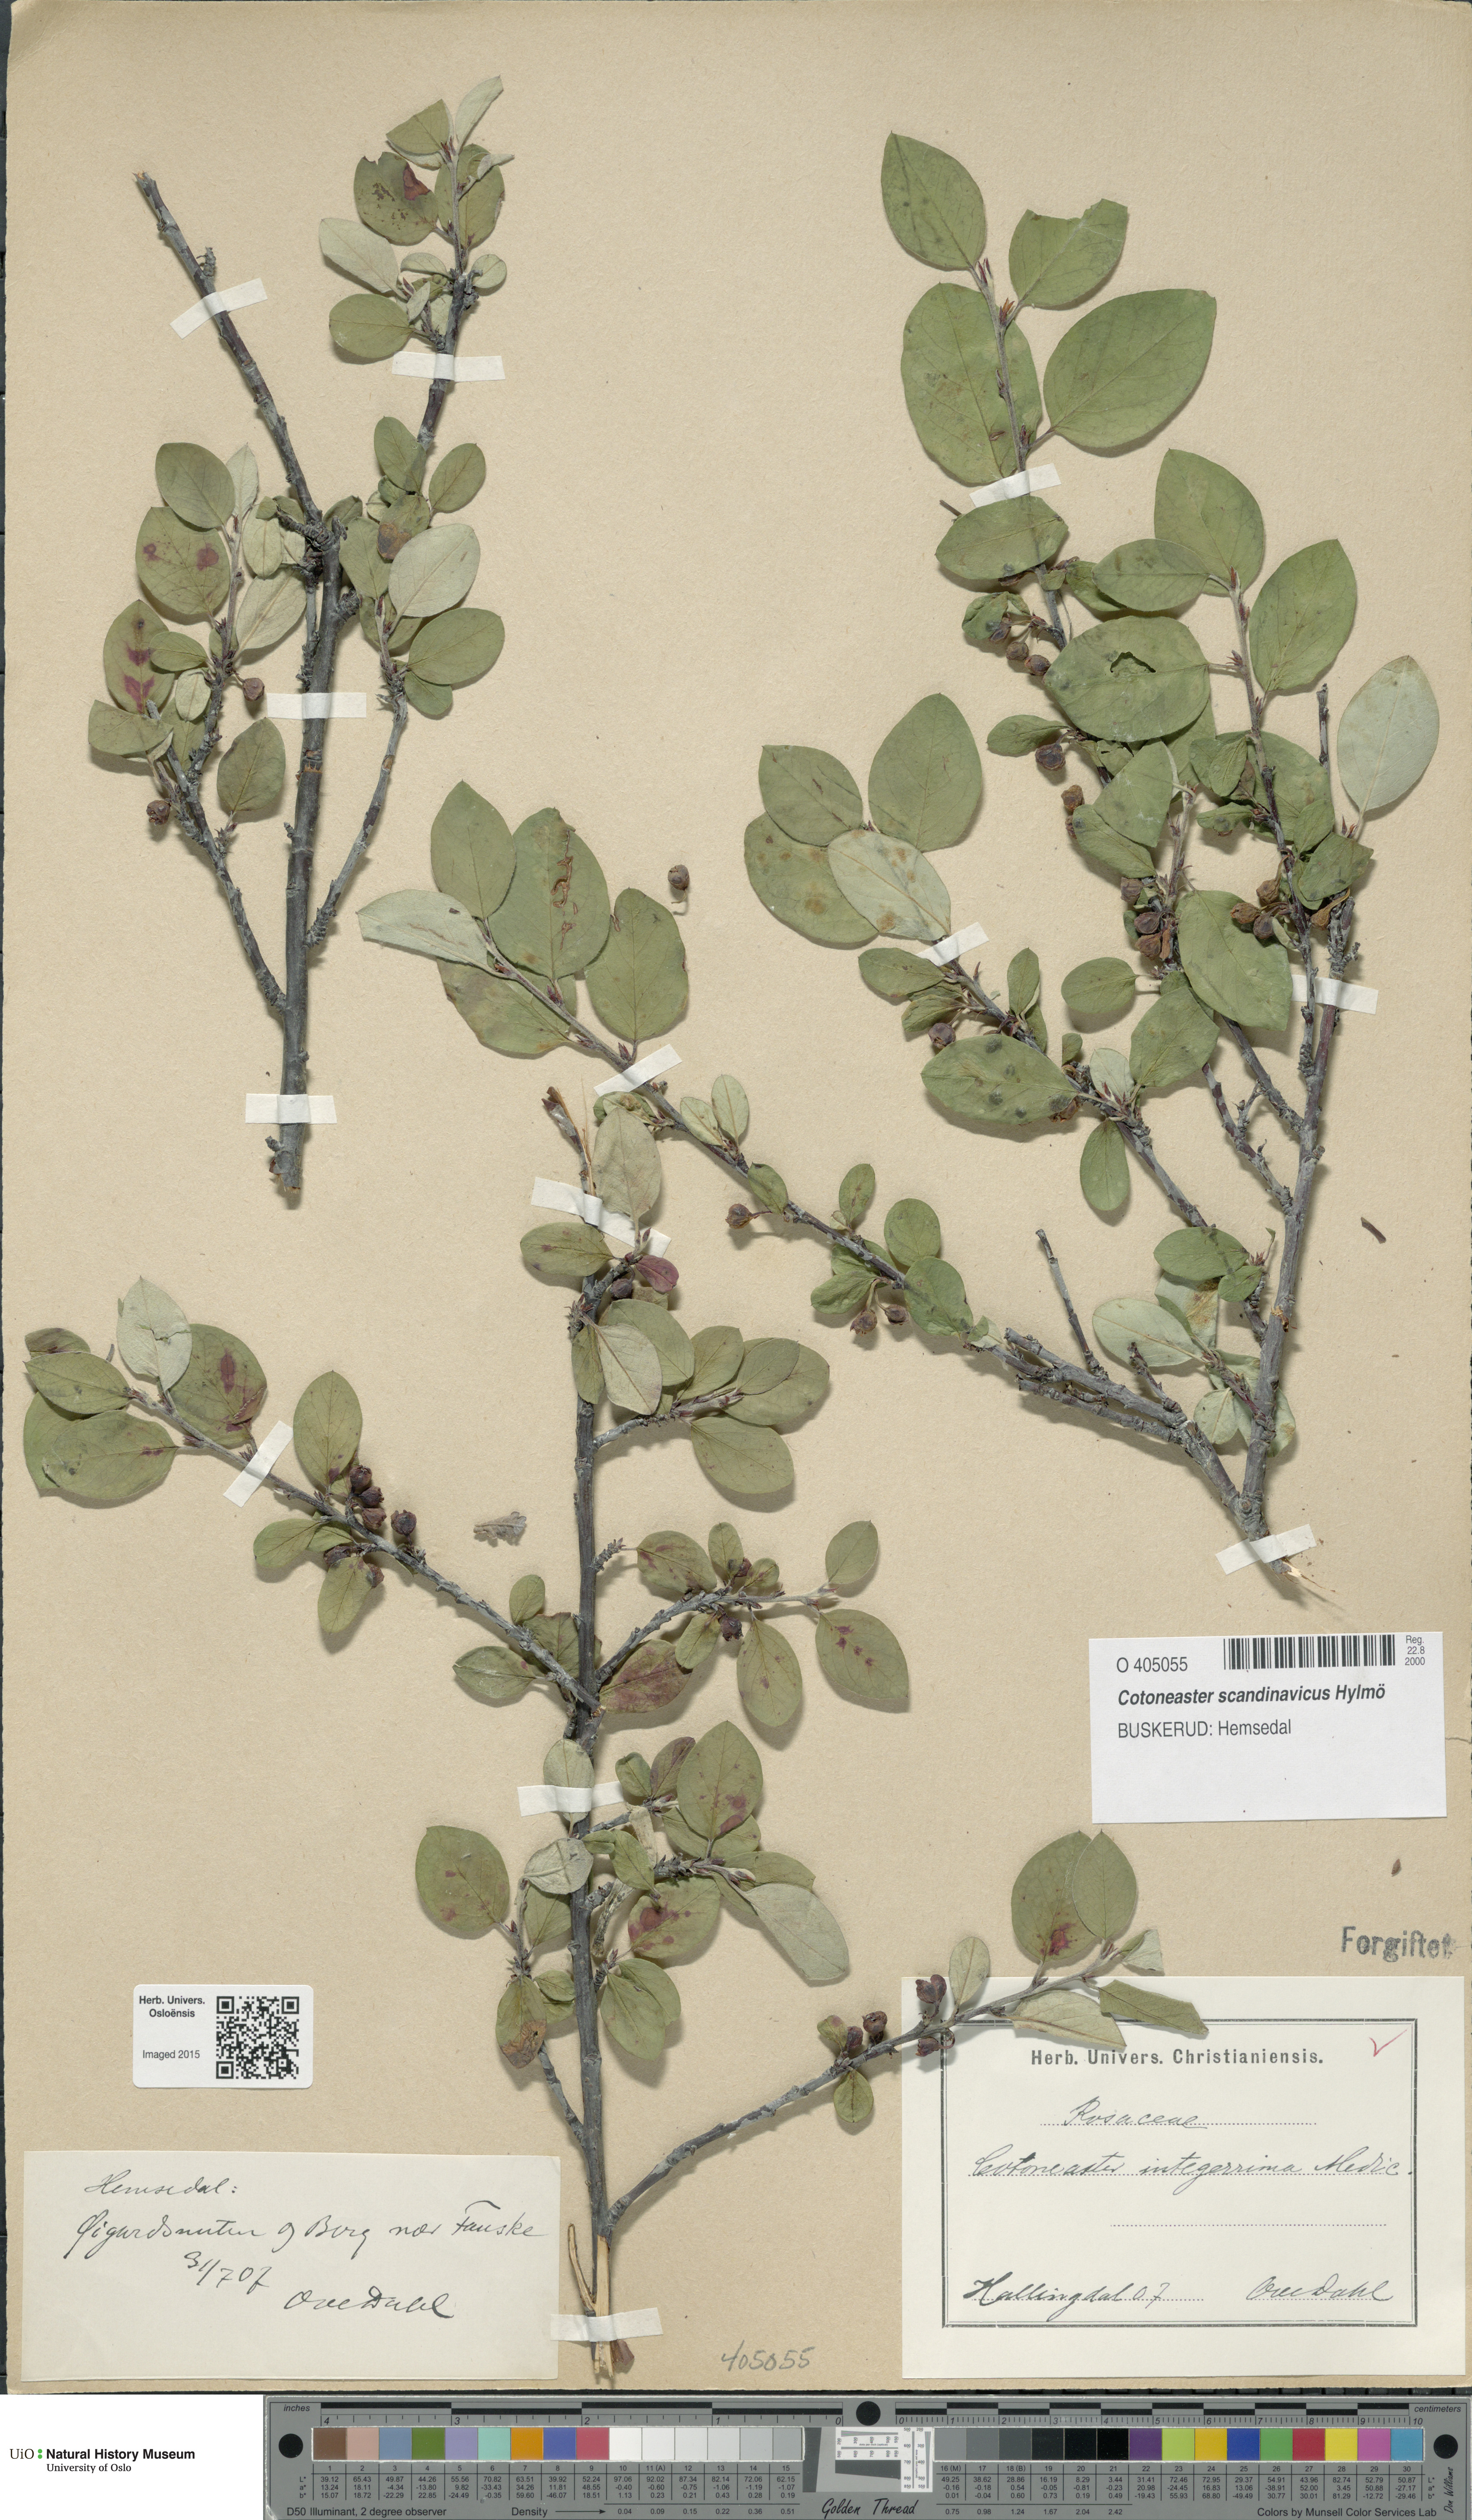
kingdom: Plantae
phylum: Tracheophyta
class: Magnoliopsida
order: Rosales
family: Rosaceae
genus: Cotoneaster
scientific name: Cotoneaster integerrimus
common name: Wild cotoneaster
